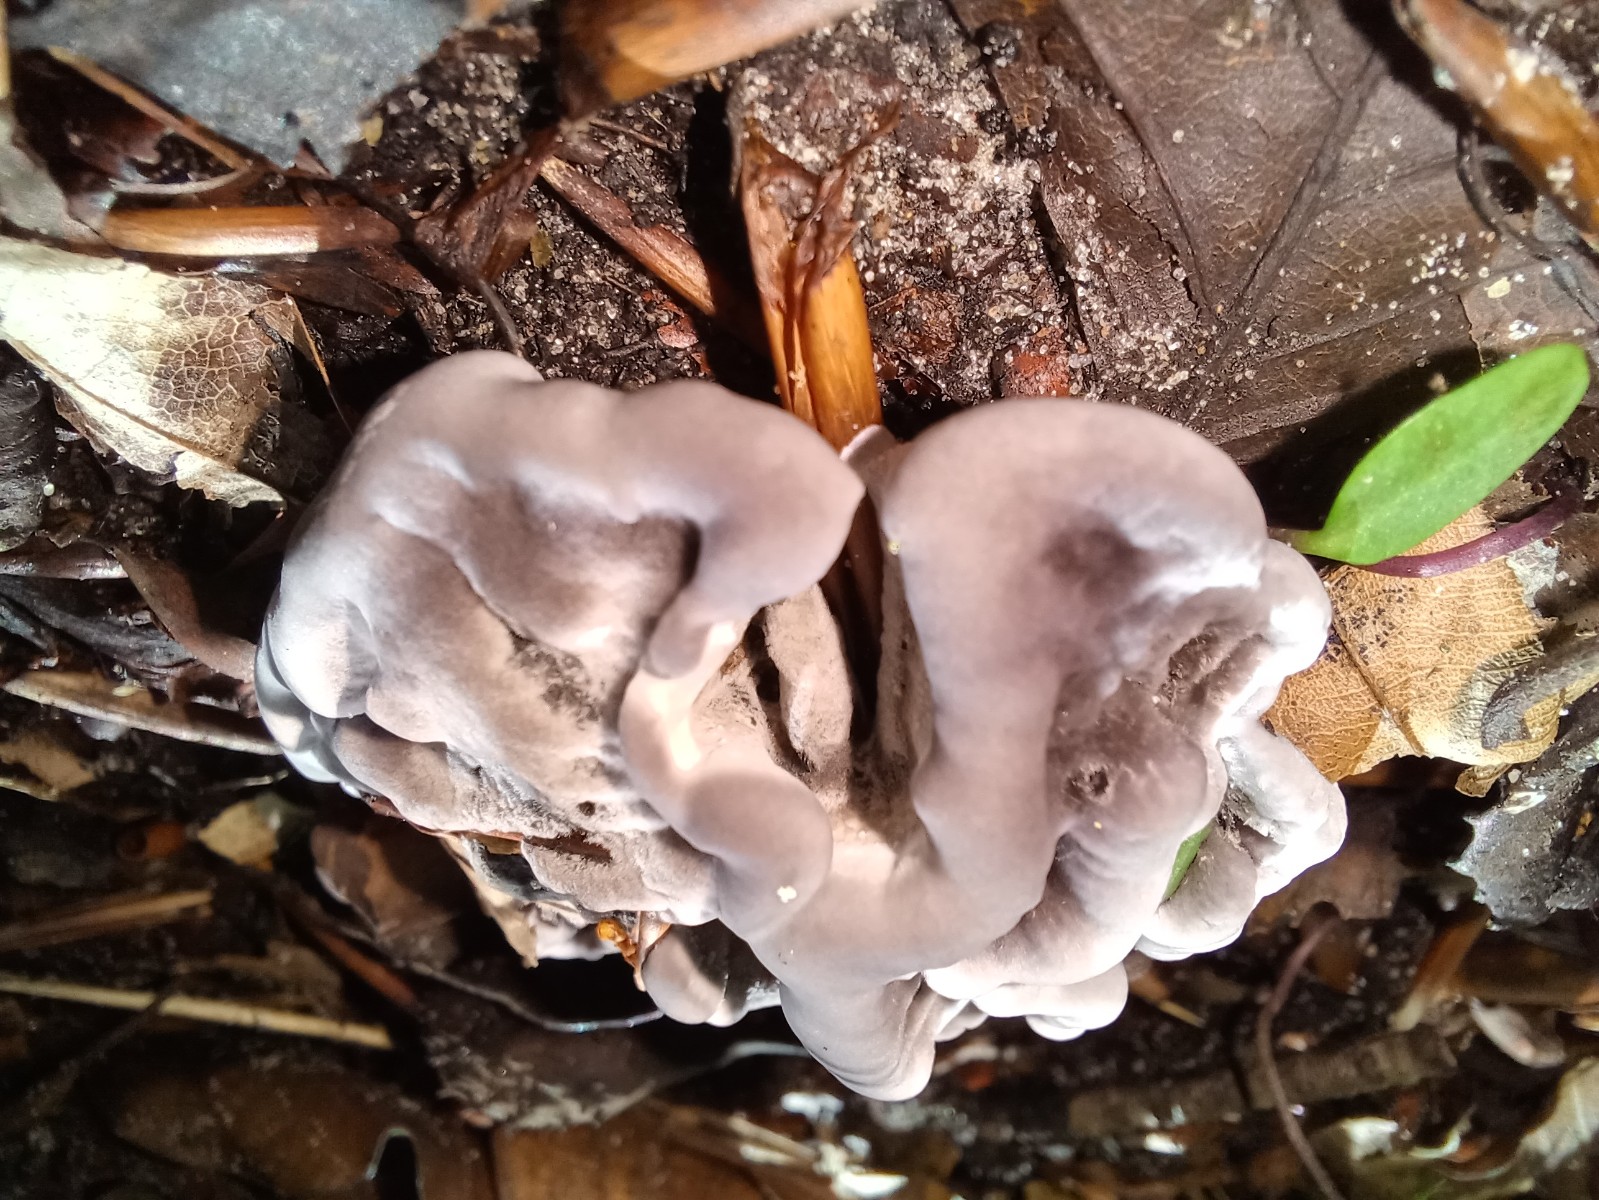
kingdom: Fungi
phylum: Basidiomycota
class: Agaricomycetes
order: Thelephorales
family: Thelephoraceae
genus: Phellodon
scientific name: Phellodon niger
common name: Black tooth
